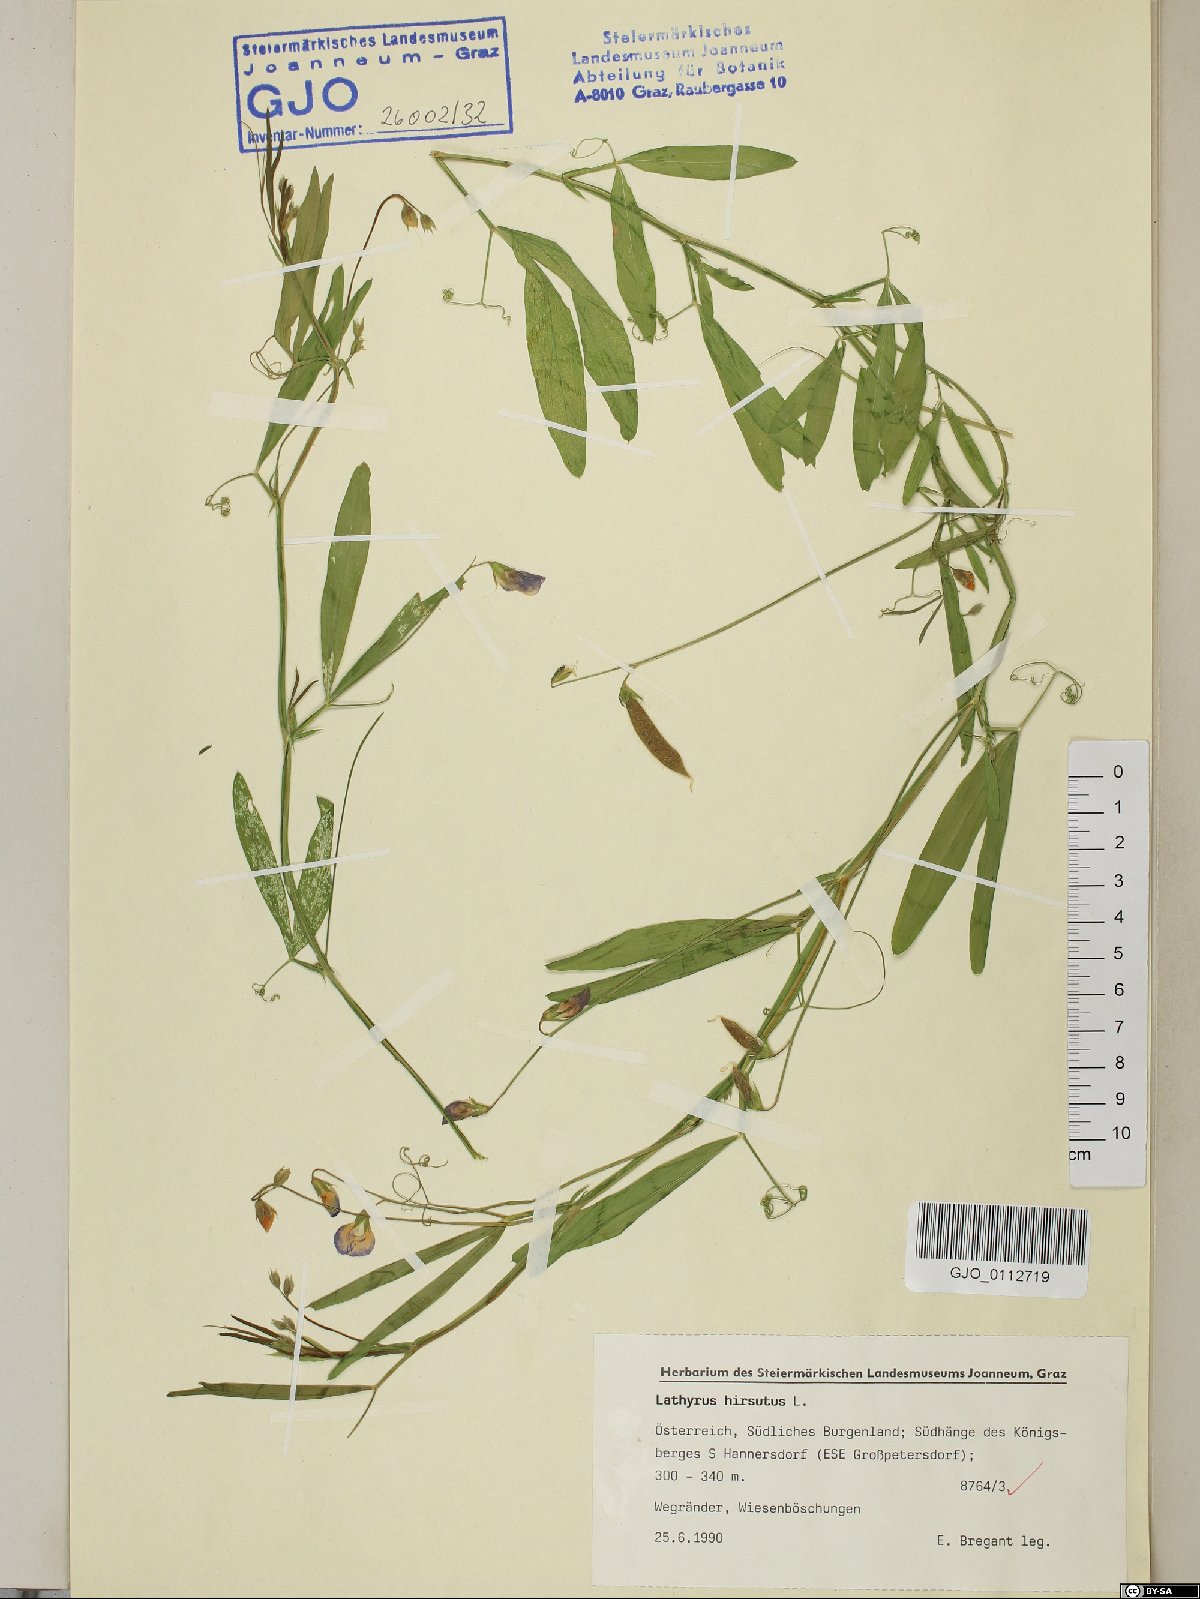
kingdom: Plantae
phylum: Tracheophyta
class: Magnoliopsida
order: Fabales
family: Fabaceae
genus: Lathyrus
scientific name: Lathyrus hirsutus
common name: Hairy vetchling
